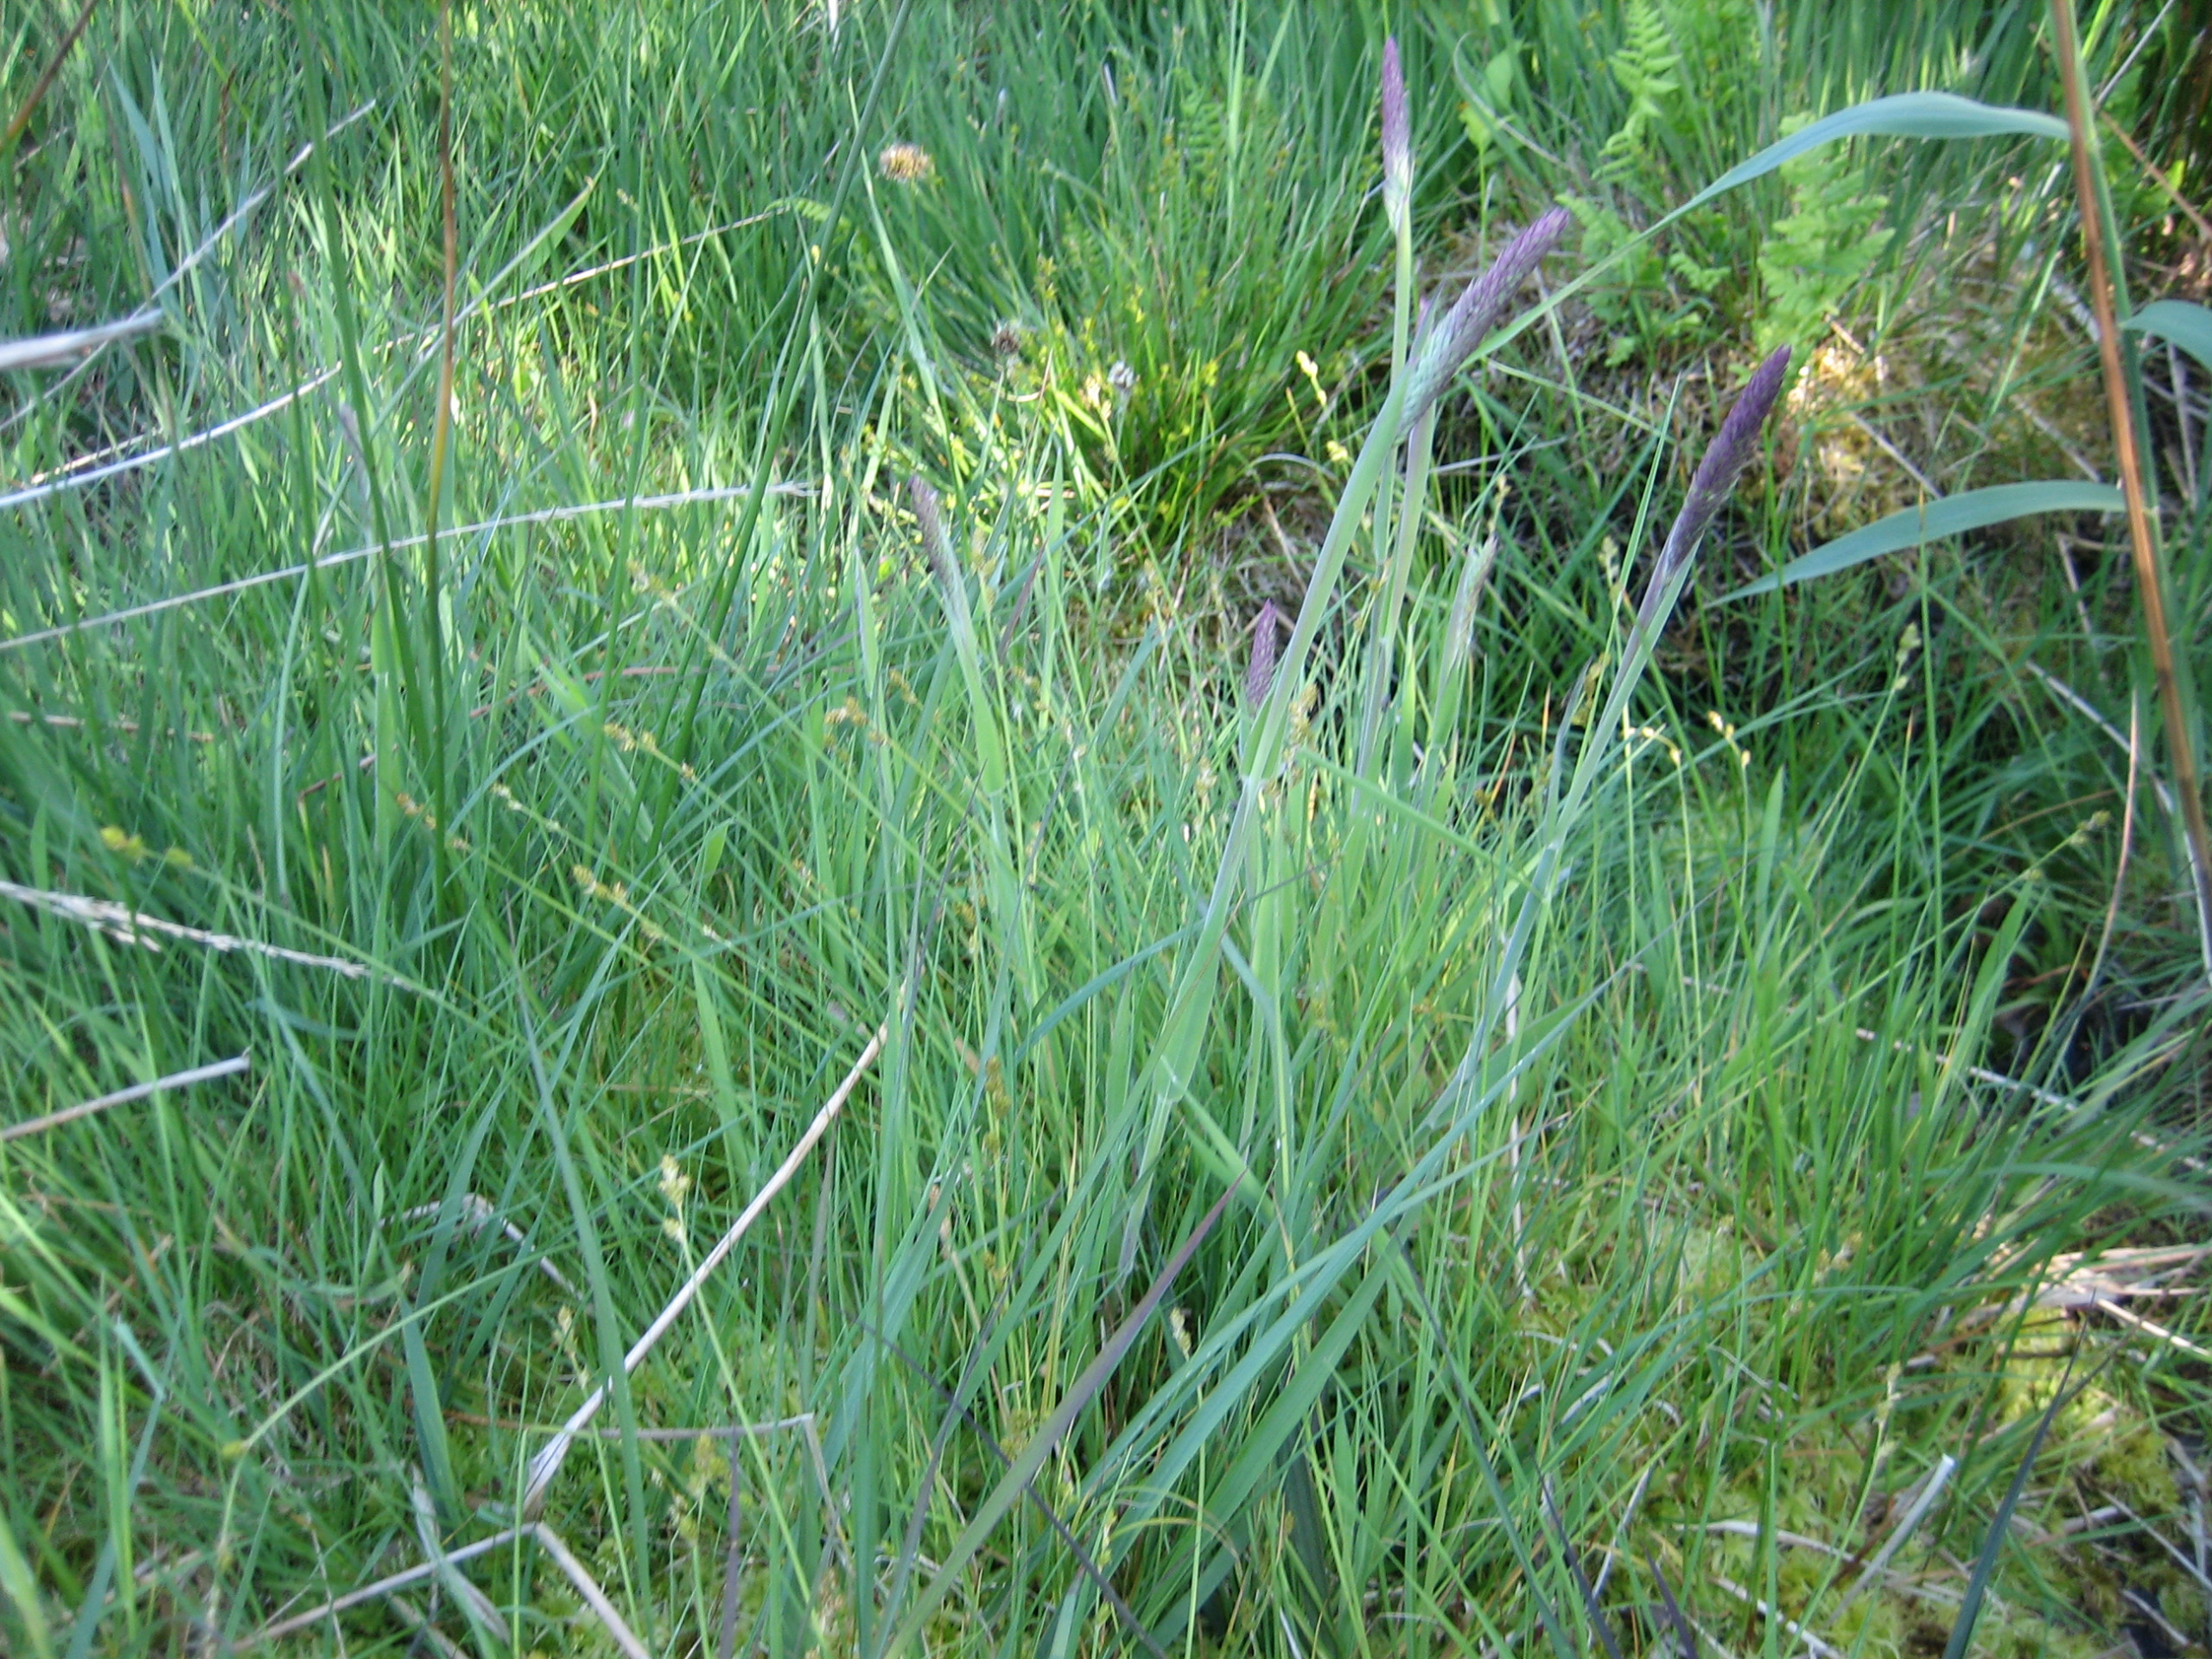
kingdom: Plantae
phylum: Tracheophyta
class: Liliopsida
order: Poales
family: Poaceae
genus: Holcus
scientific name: Holcus lanatus
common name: Fløjlsgræs
